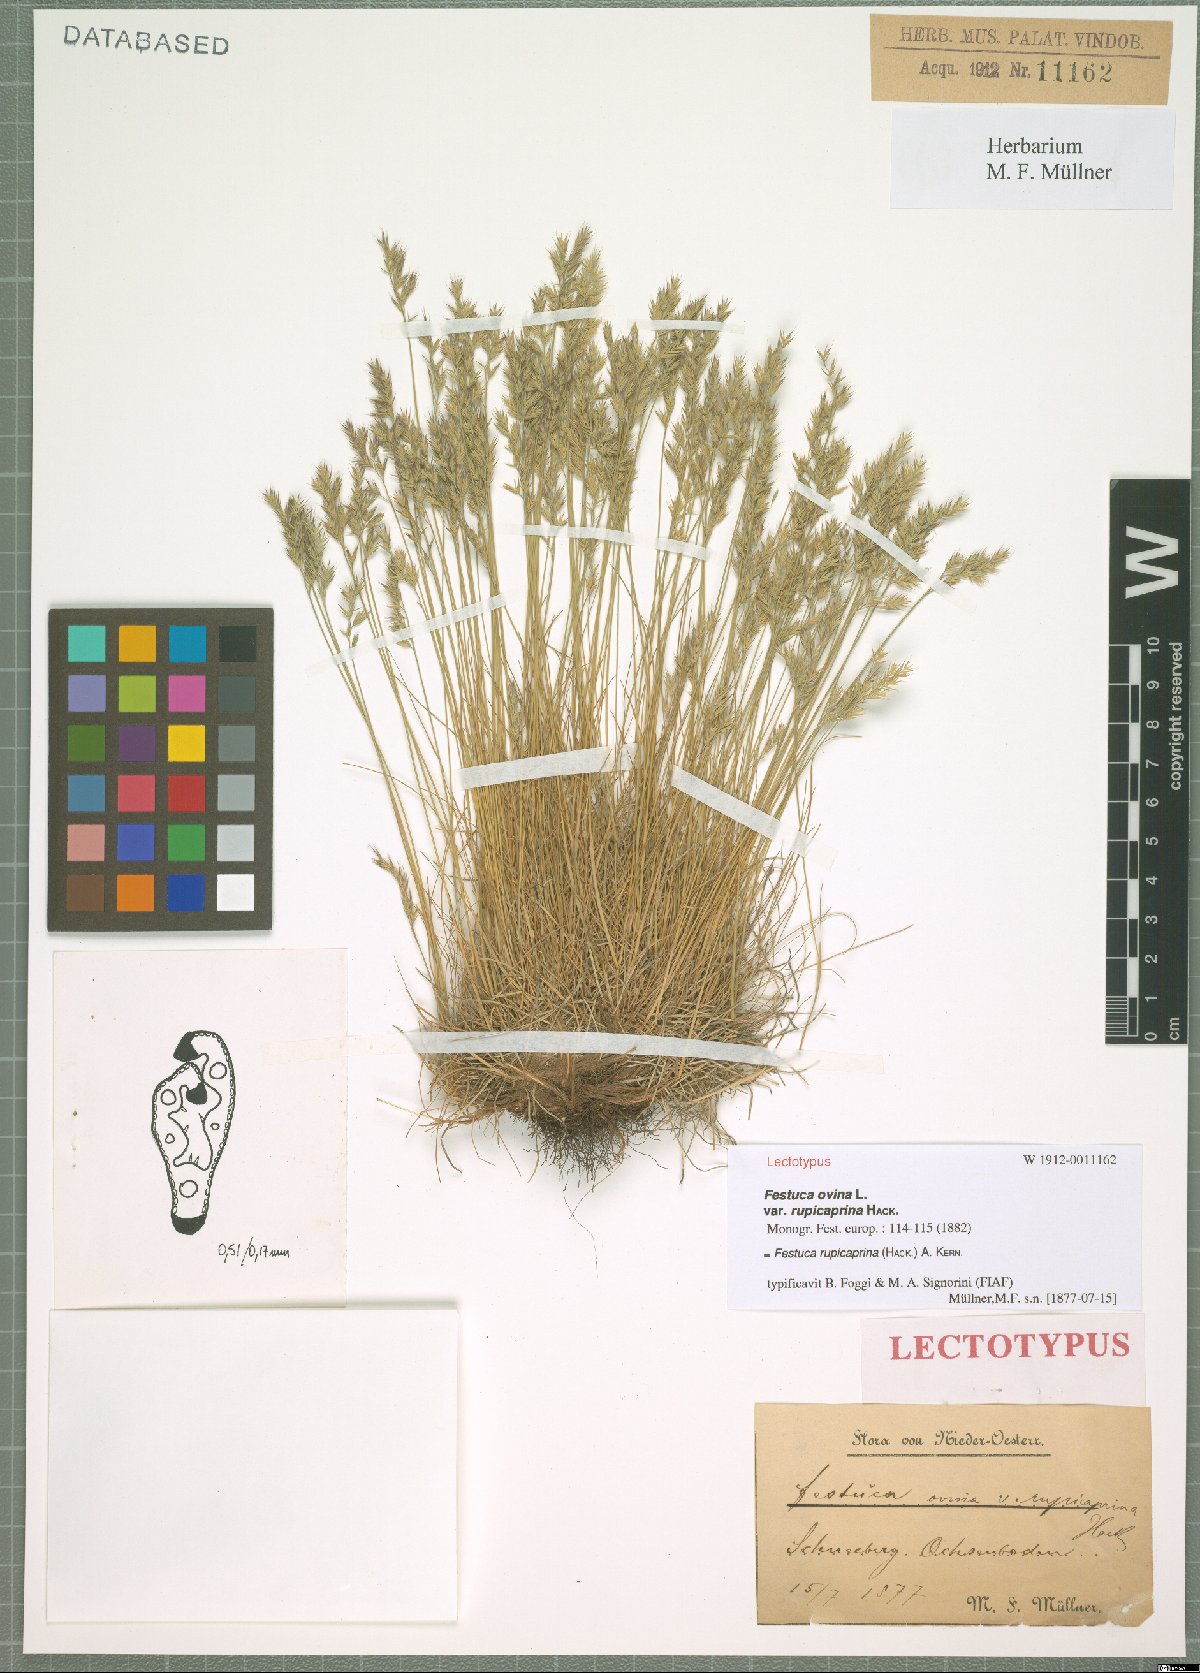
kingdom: Plantae
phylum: Tracheophyta
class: Liliopsida
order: Poales
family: Poaceae
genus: Festuca
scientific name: Festuca rupicaprina
